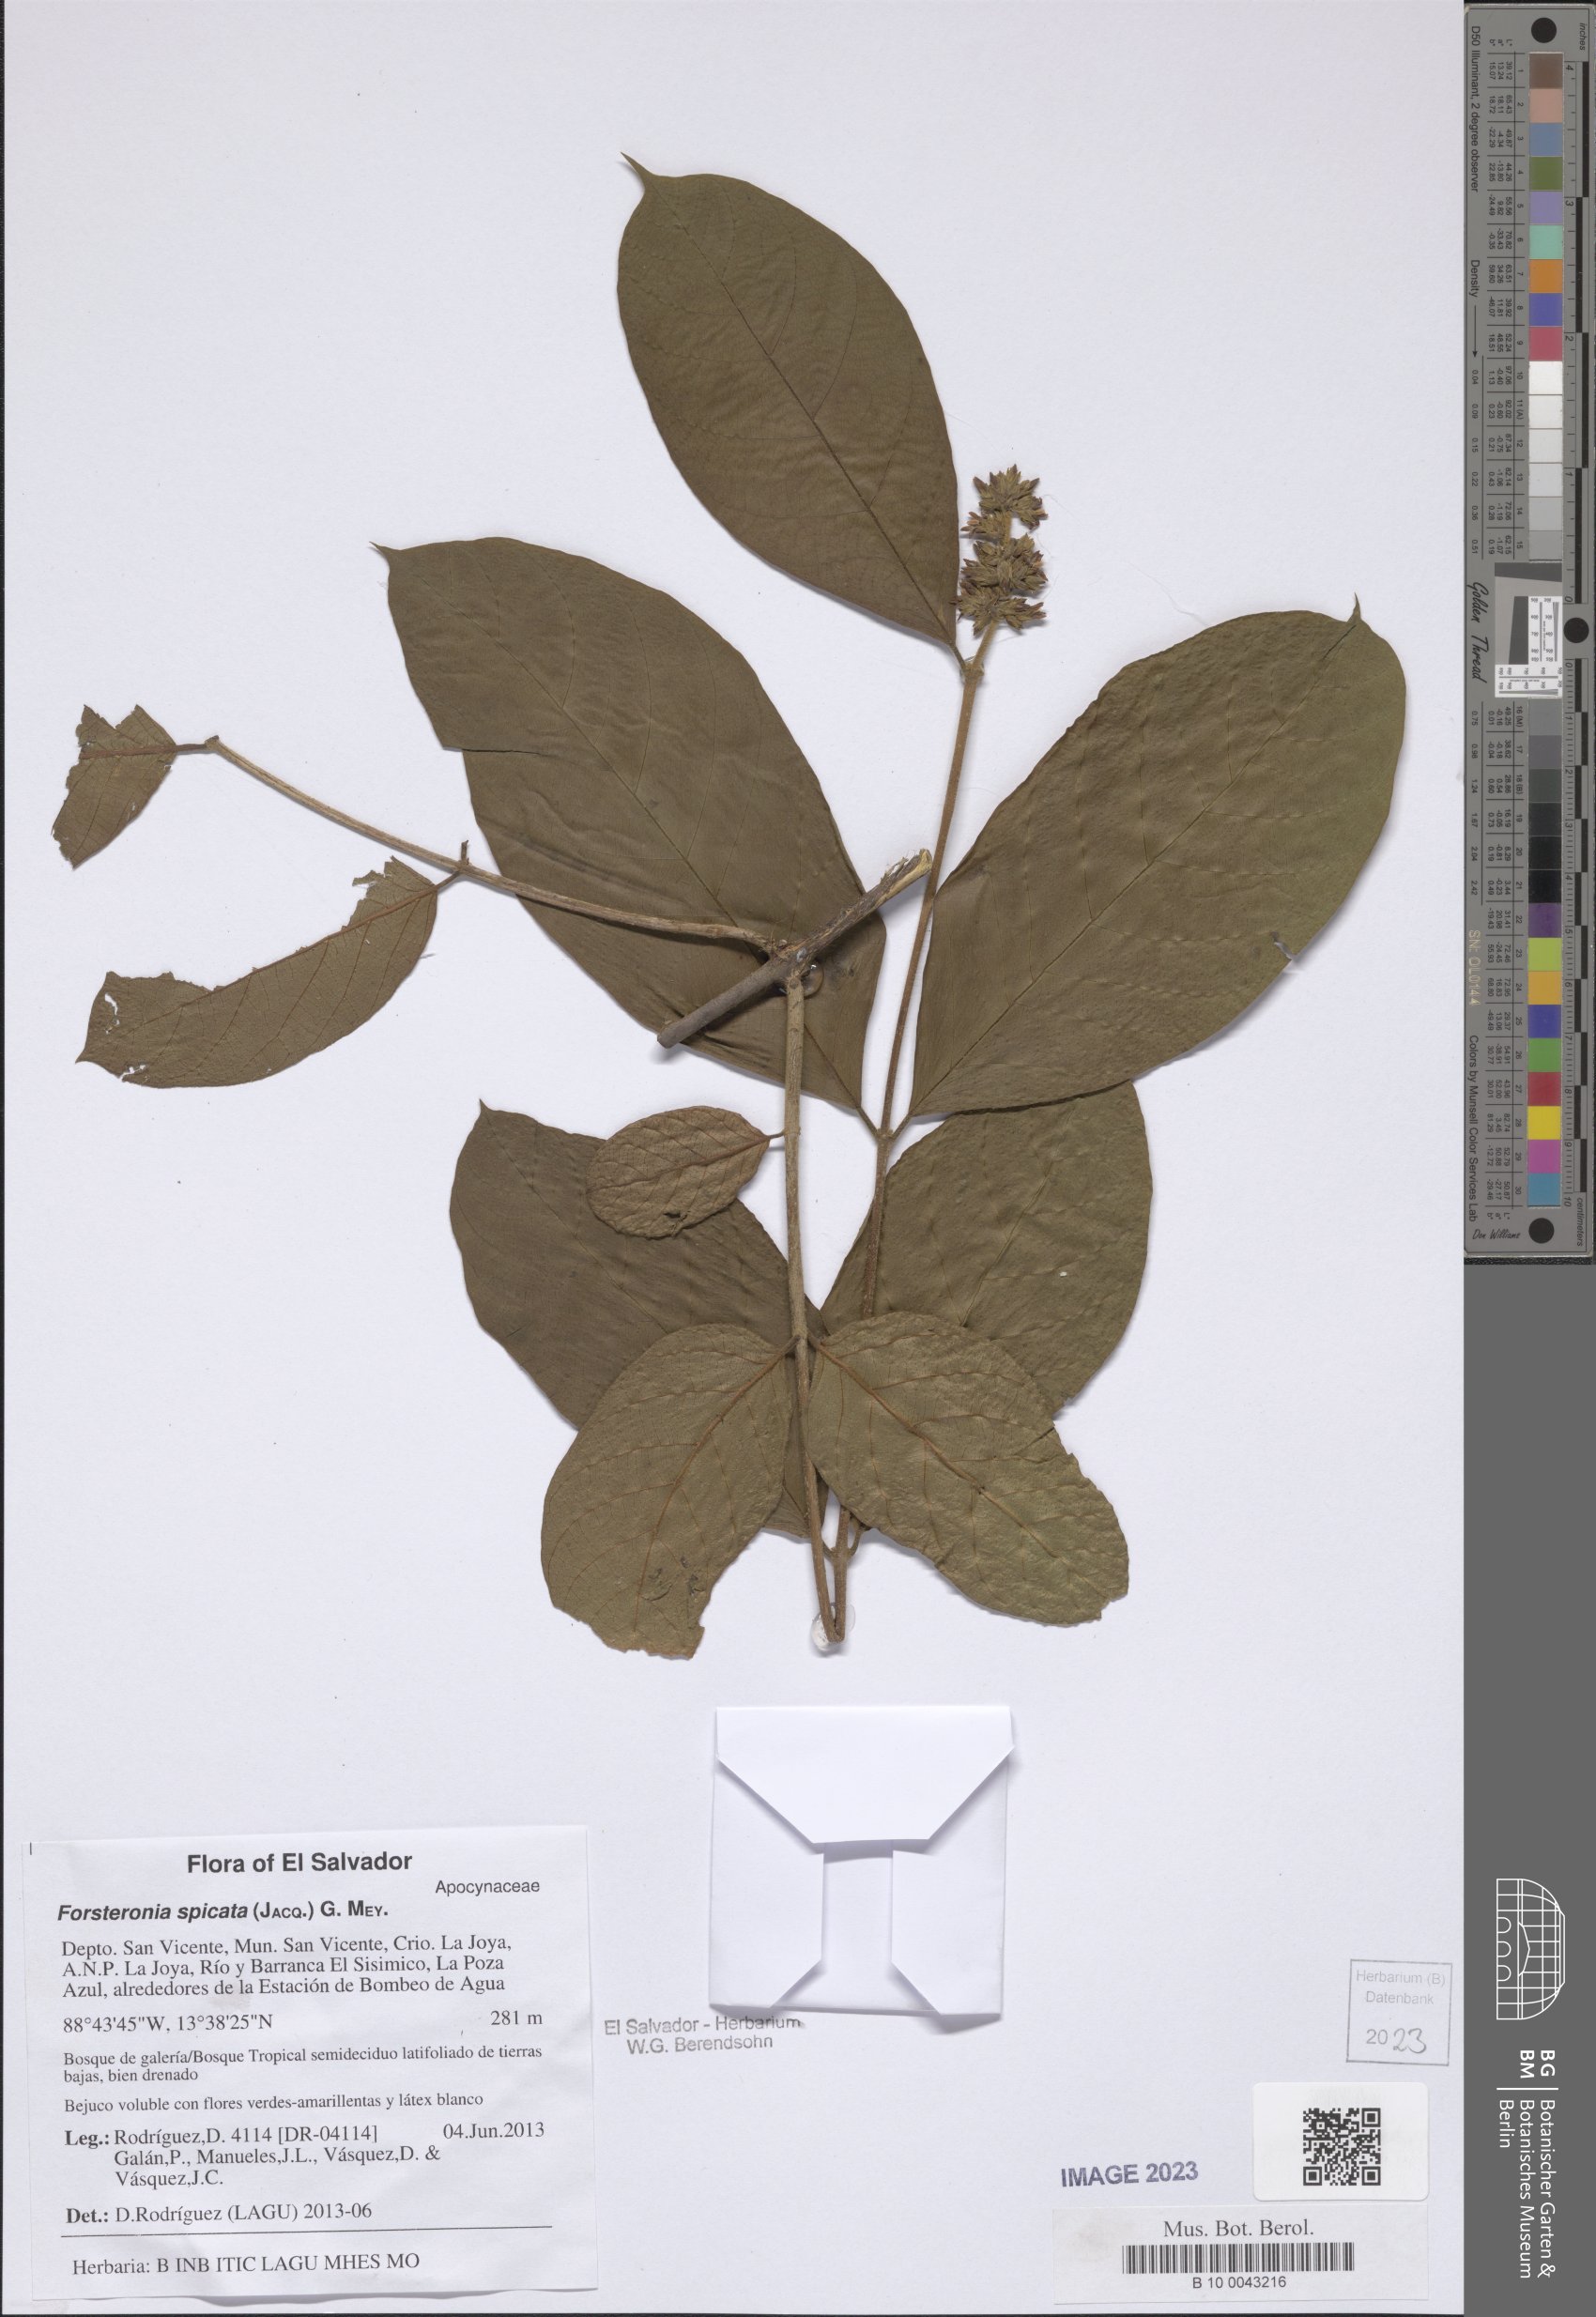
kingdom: Plantae
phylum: Tracheophyta
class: Magnoliopsida
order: Gentianales
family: Apocynaceae
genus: Forsteronia
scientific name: Forsteronia spicata
